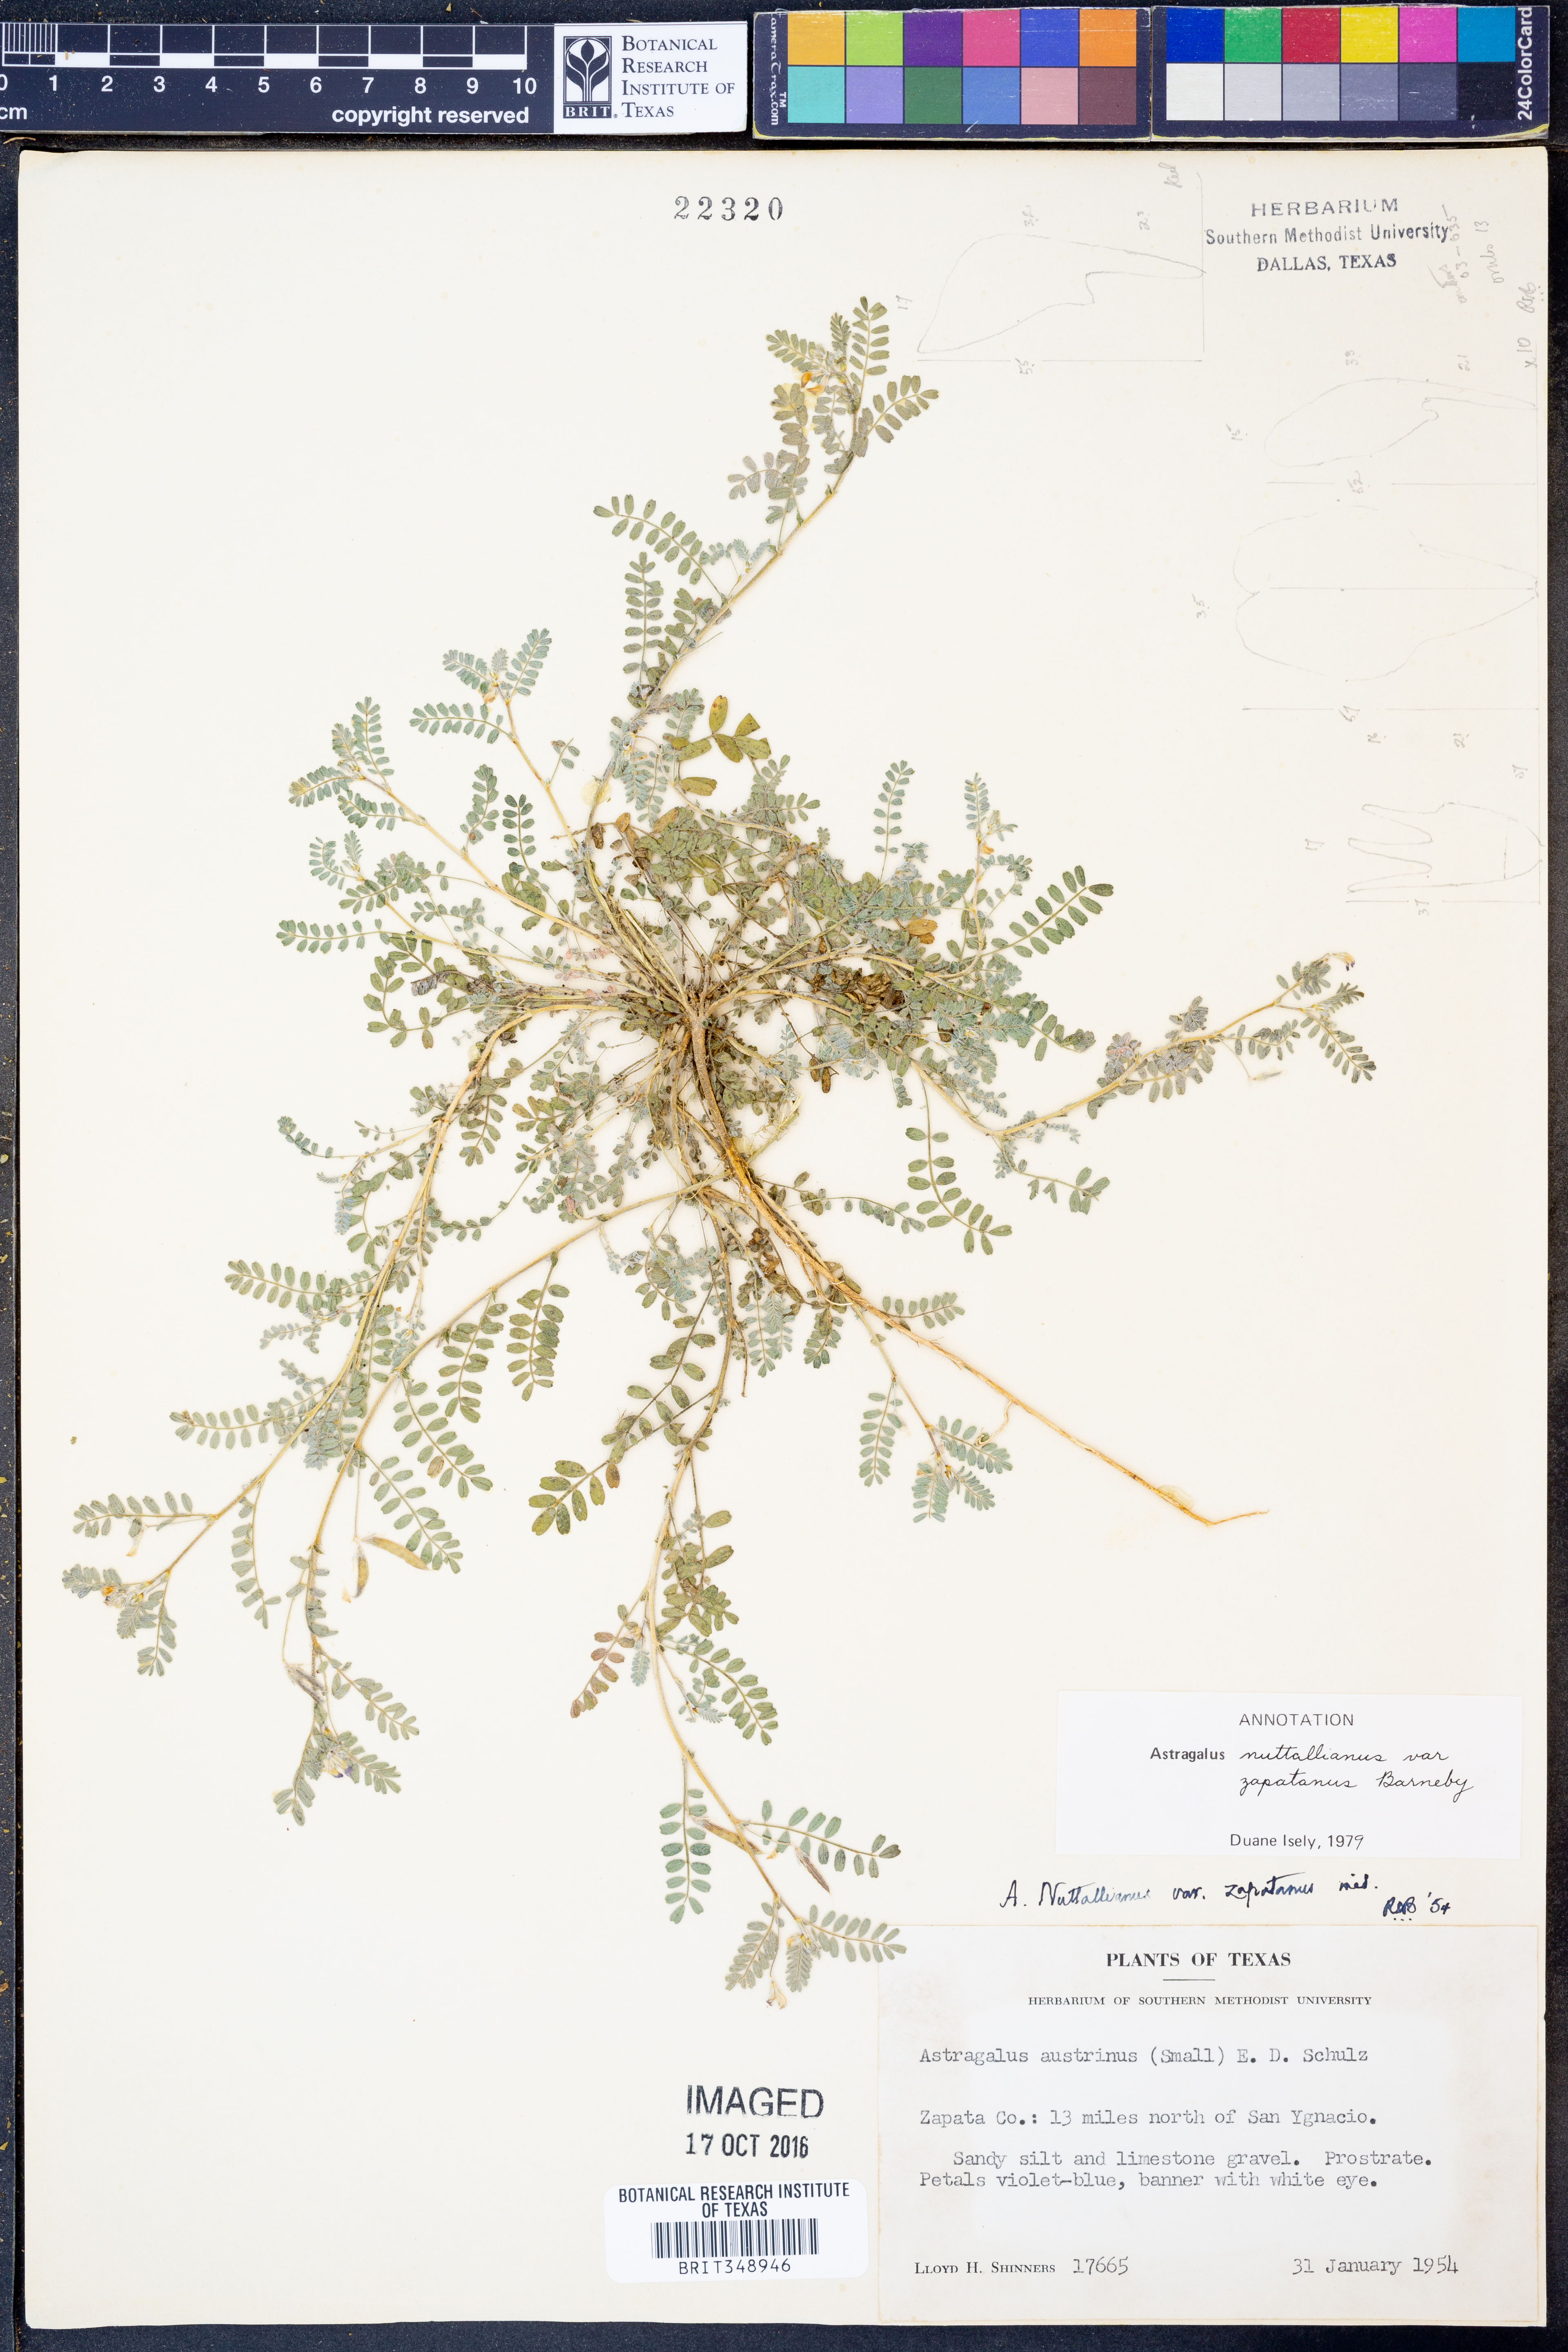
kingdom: Plantae
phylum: Tracheophyta
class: Magnoliopsida
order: Fabales
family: Fabaceae
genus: Astragalus
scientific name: Astragalus nuttallianus
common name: Smallflowered milkvetch
